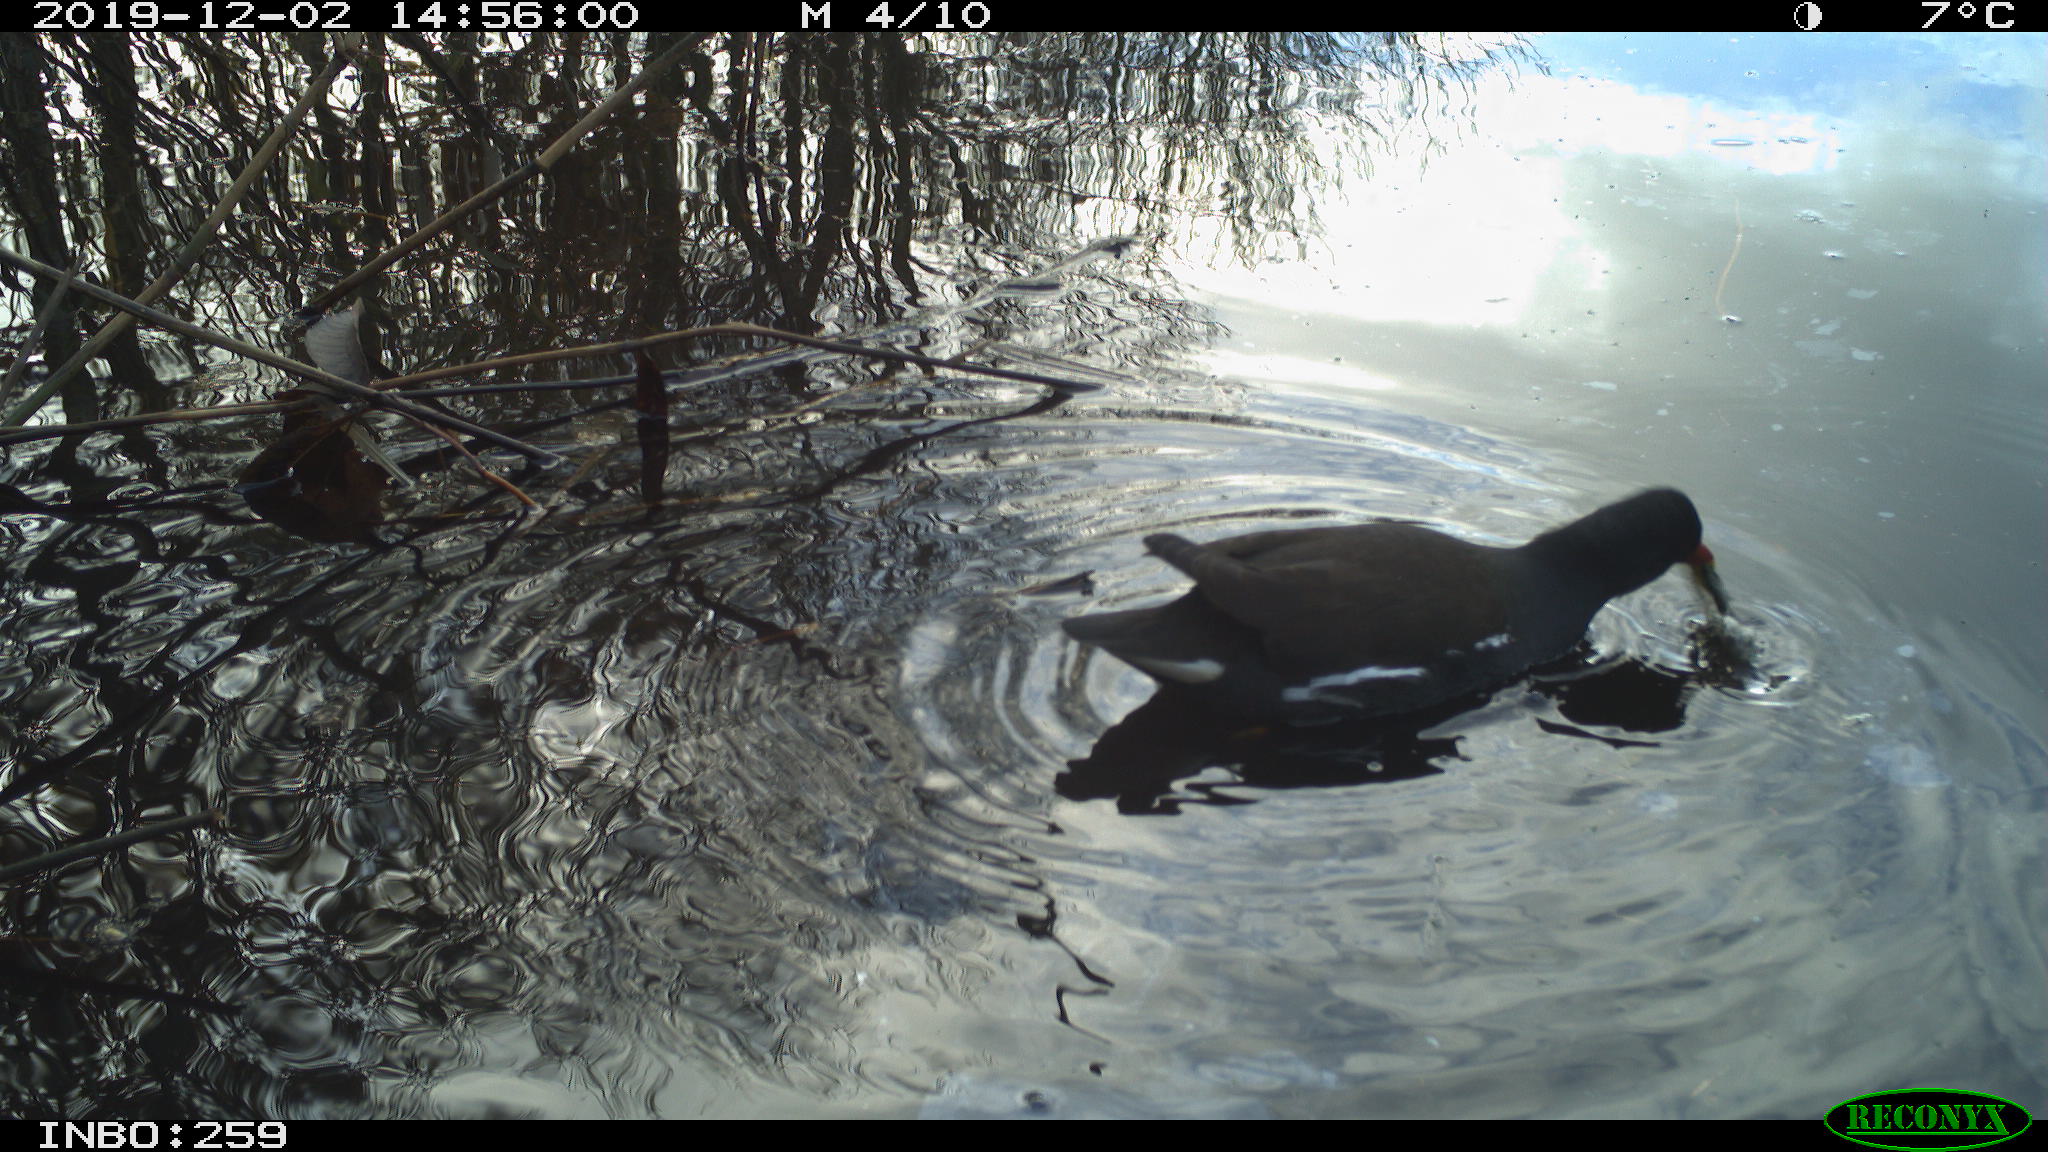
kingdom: Animalia
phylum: Chordata
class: Aves
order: Gruiformes
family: Rallidae
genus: Gallinula
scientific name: Gallinula chloropus
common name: Common moorhen
